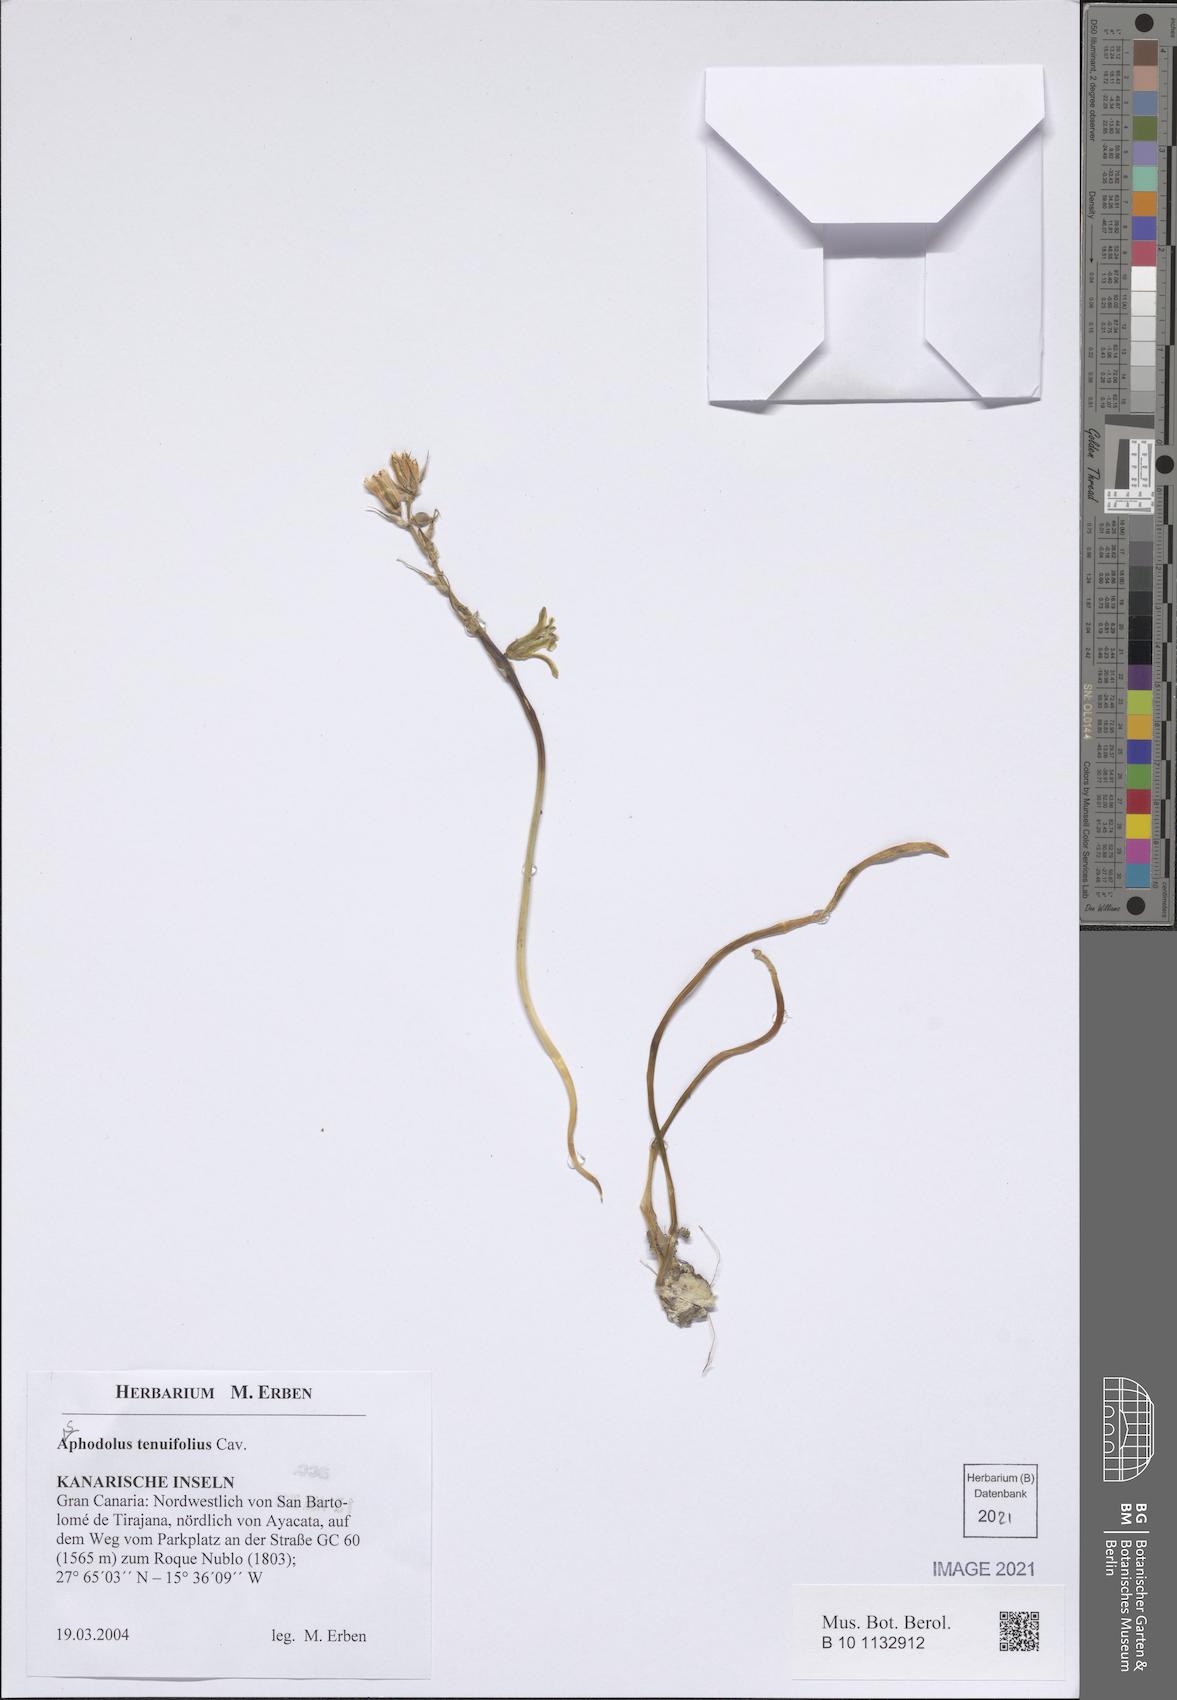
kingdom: Plantae
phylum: Tracheophyta
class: Liliopsida
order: Asparagales
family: Asphodelaceae
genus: Asphodelus
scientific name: Asphodelus tenuifolius
